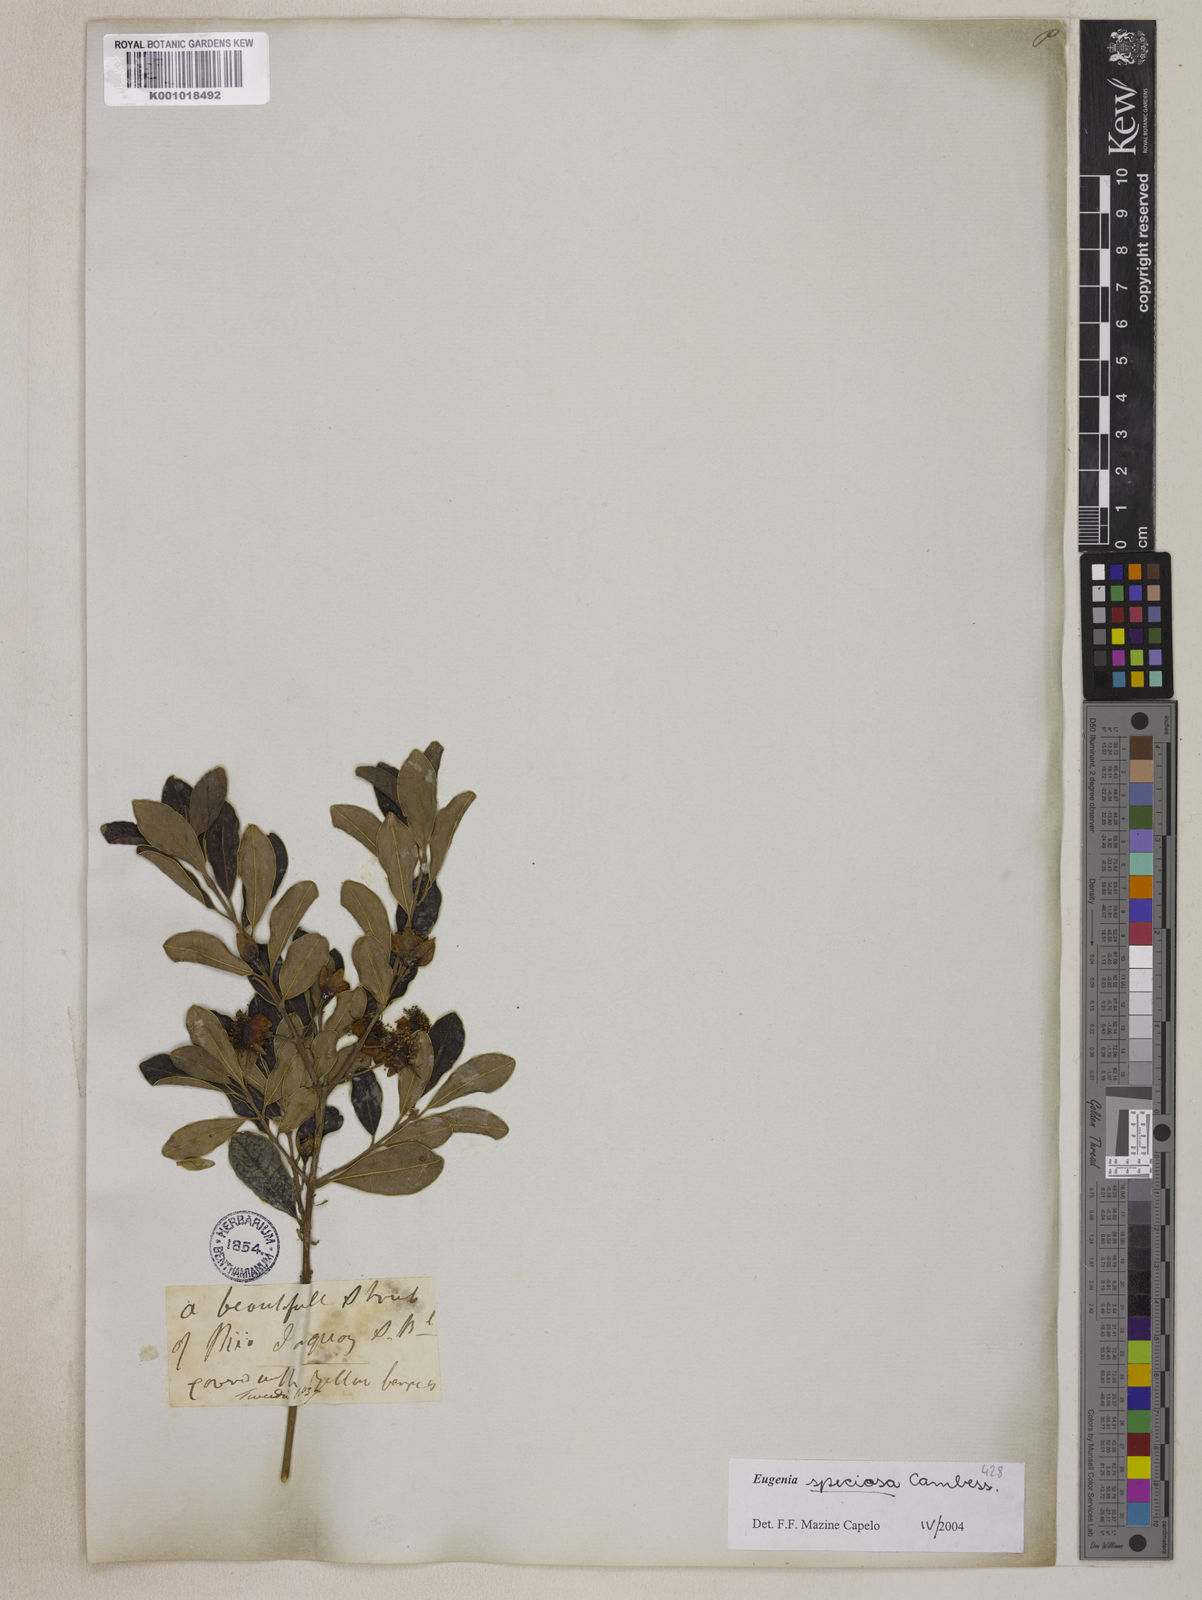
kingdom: Plantae
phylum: Tracheophyta
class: Magnoliopsida
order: Myrtales
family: Myrtaceae
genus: Eugenia
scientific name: Eugenia speciosa
